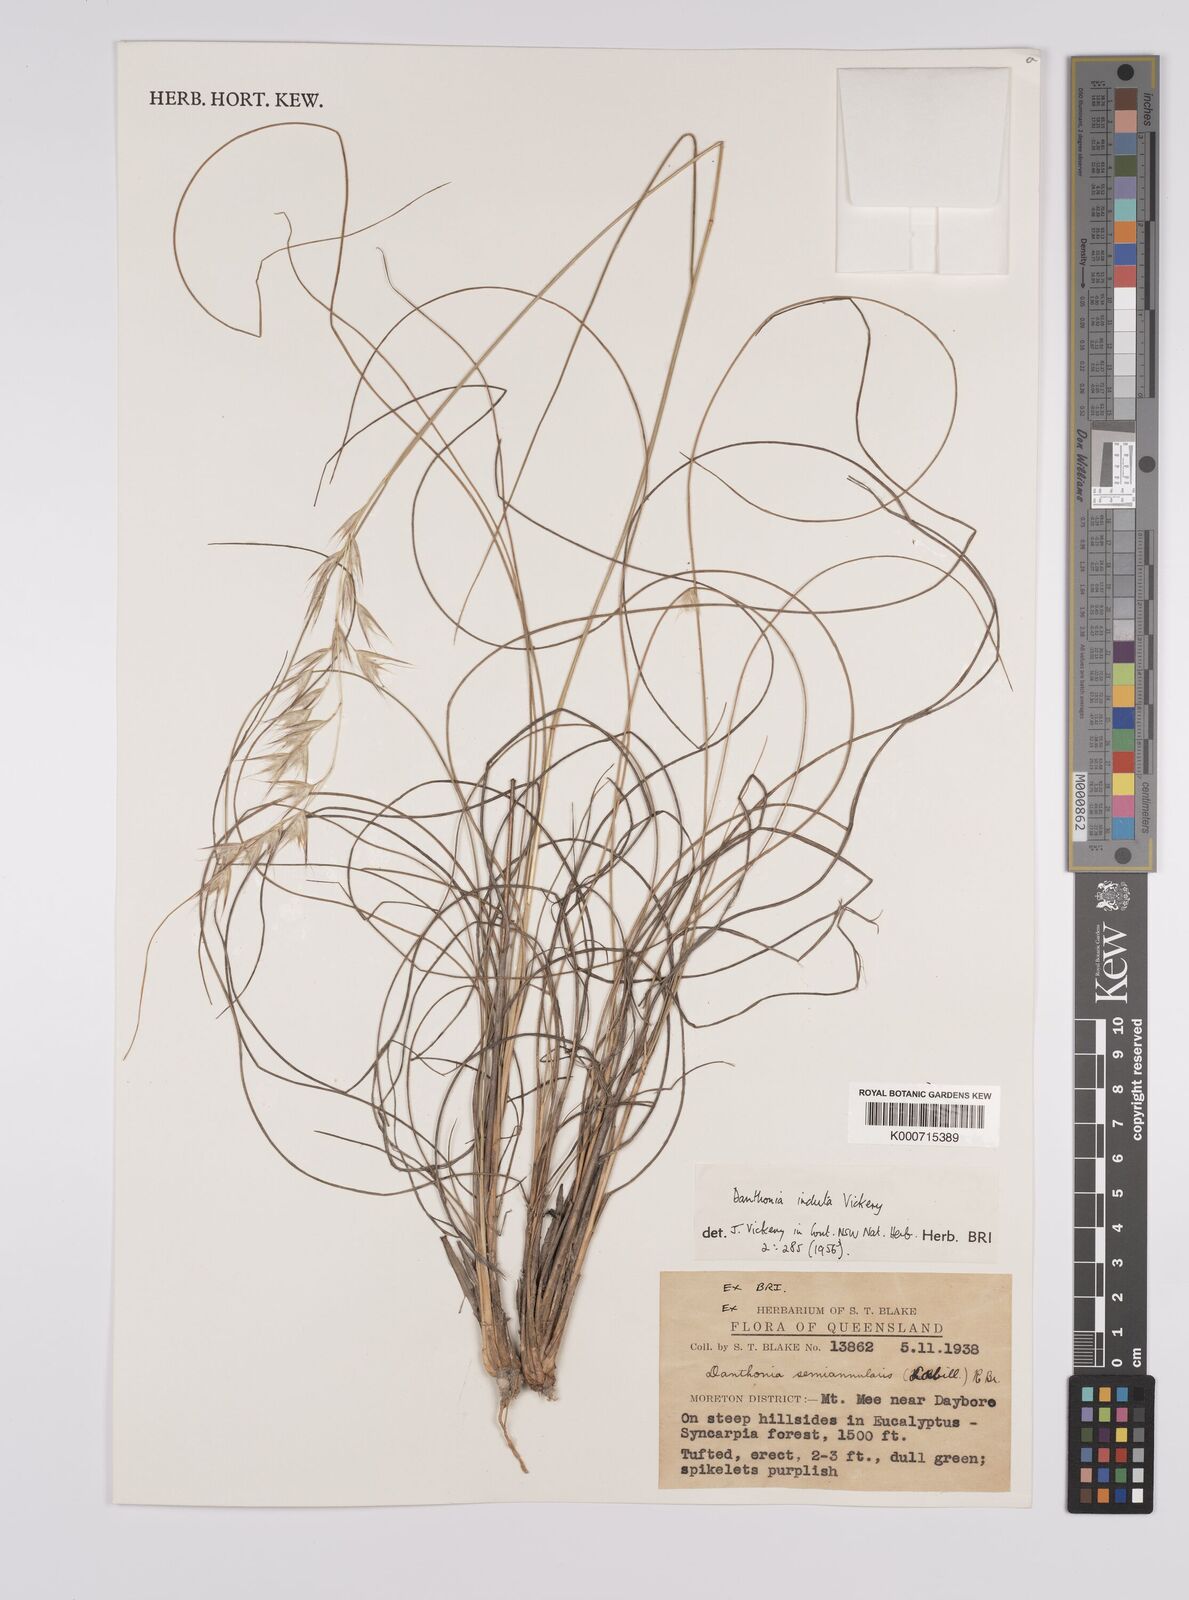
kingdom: Plantae
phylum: Tracheophyta
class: Liliopsida
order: Poales
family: Poaceae
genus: Rytidosperma
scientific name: Rytidosperma indutum
